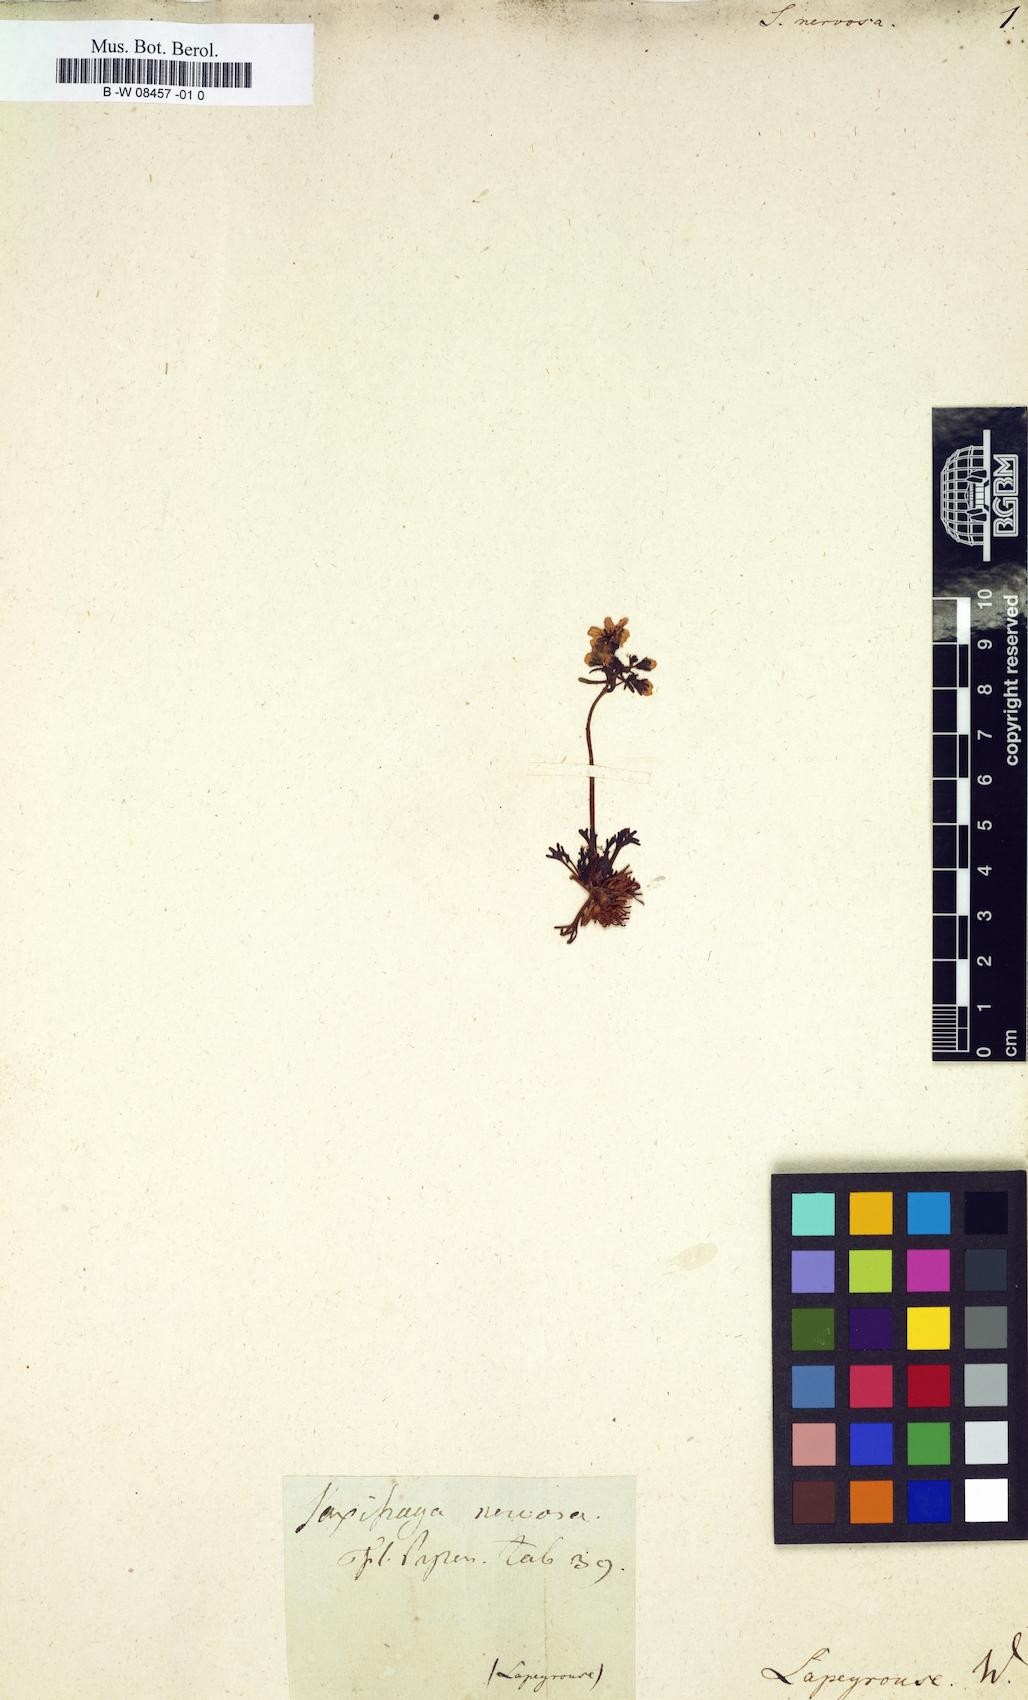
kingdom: Plantae
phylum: Tracheophyta
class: Magnoliopsida
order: Saxifragales
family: Saxifragaceae
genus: Saxifraga
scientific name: Saxifraga
